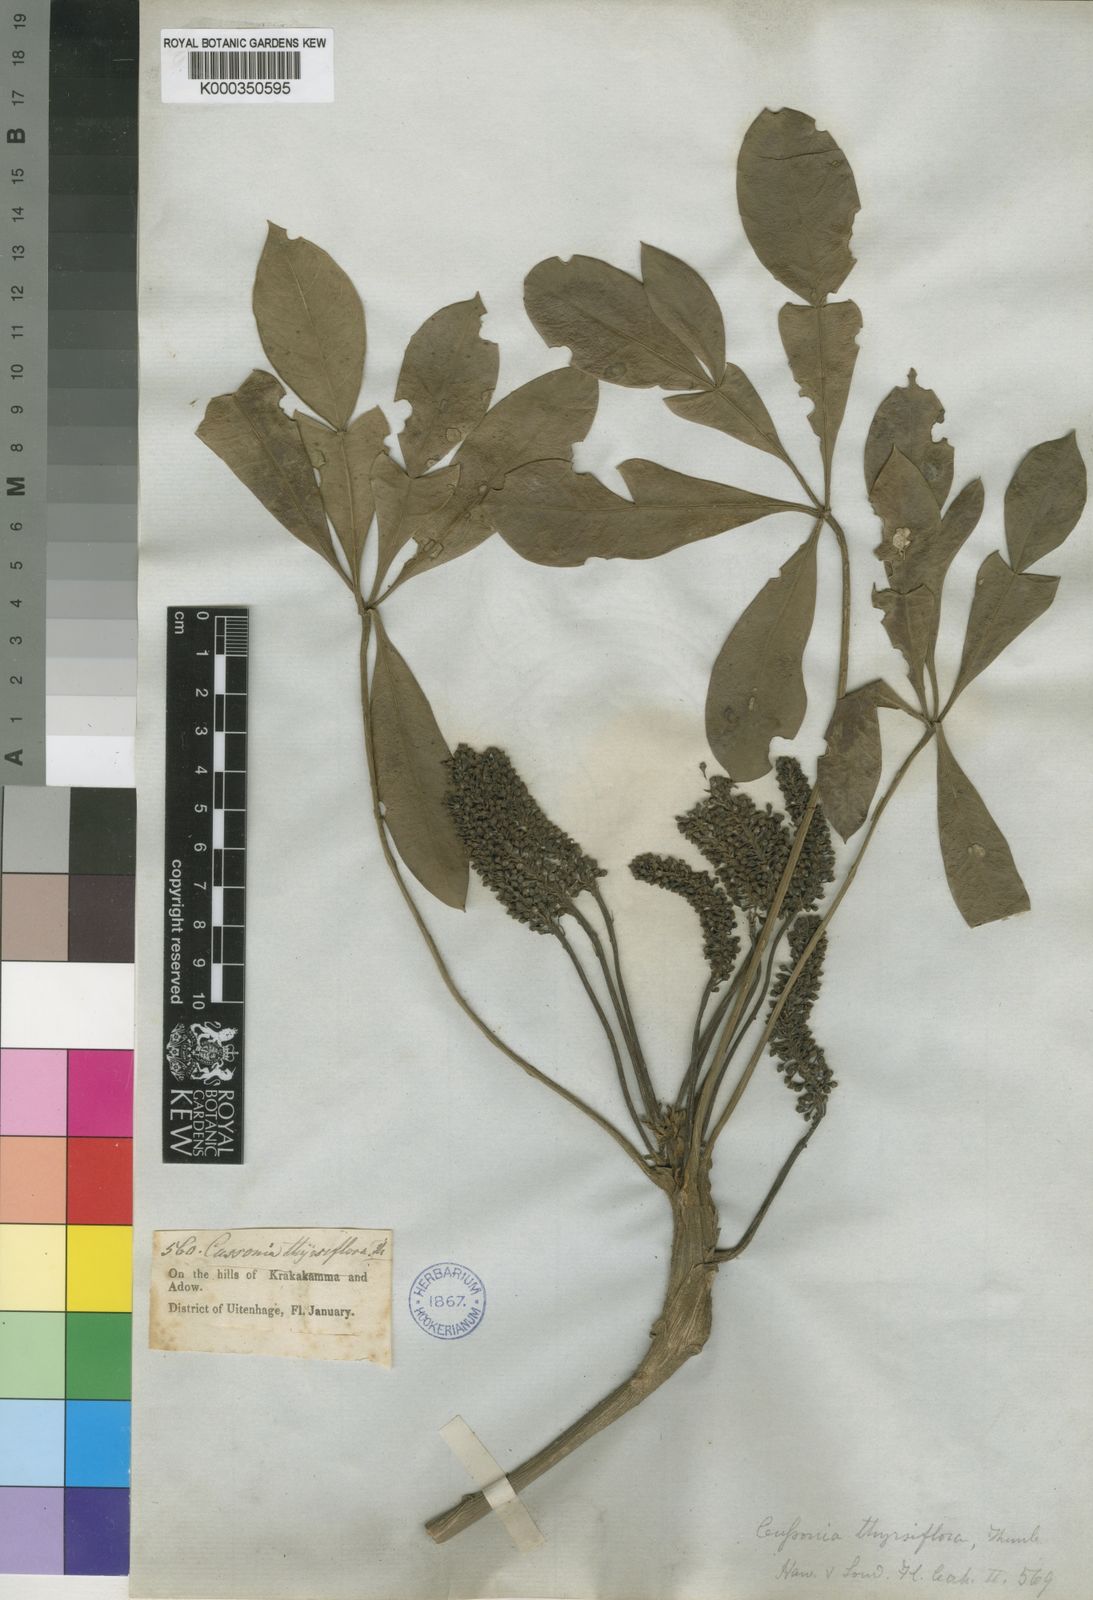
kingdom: Plantae
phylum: Tracheophyta
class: Magnoliopsida
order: Apiales
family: Araliaceae
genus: Cussonia
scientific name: Cussonia thyrsiflora
